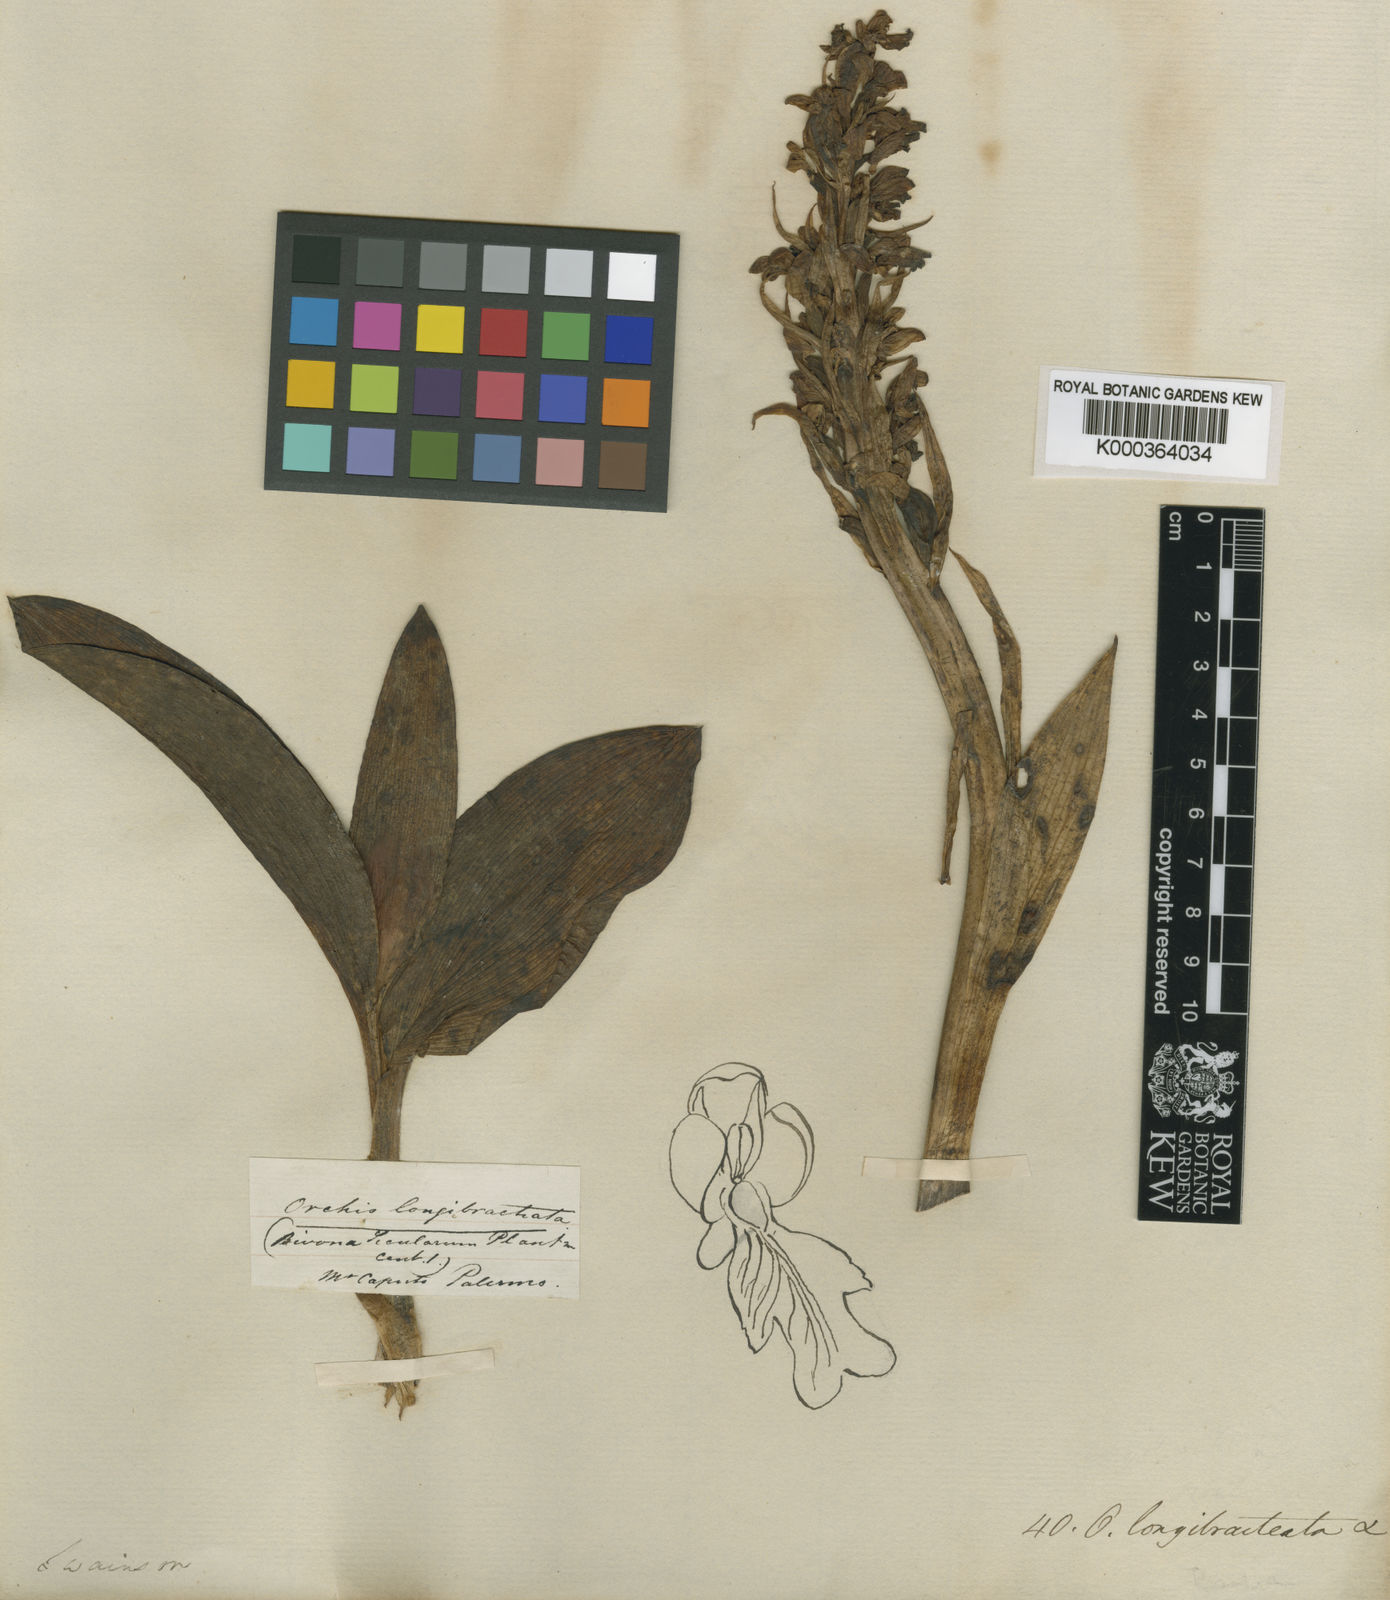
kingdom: Plantae
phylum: Tracheophyta
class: Liliopsida
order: Asparagales
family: Orchidaceae
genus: Himantoglossum
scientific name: Himantoglossum robertianum
